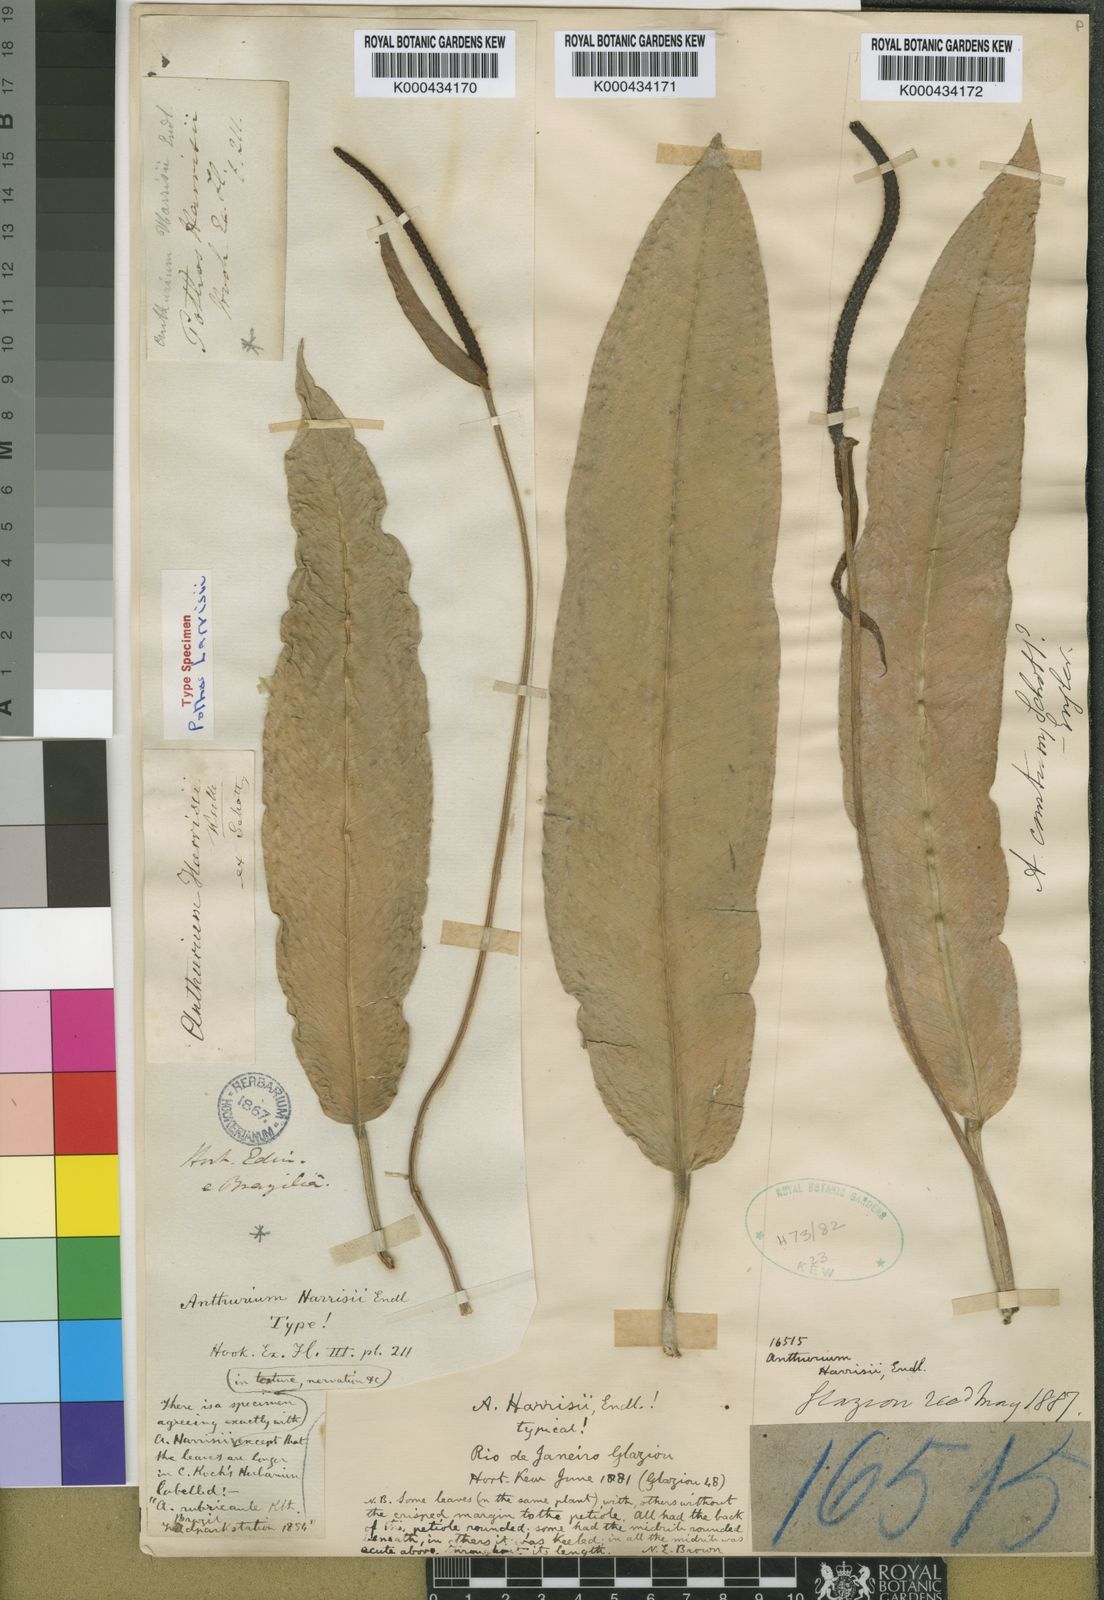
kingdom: Plantae
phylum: Tracheophyta
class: Liliopsida
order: Alismatales
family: Araceae
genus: Anthurium
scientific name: Anthurium
